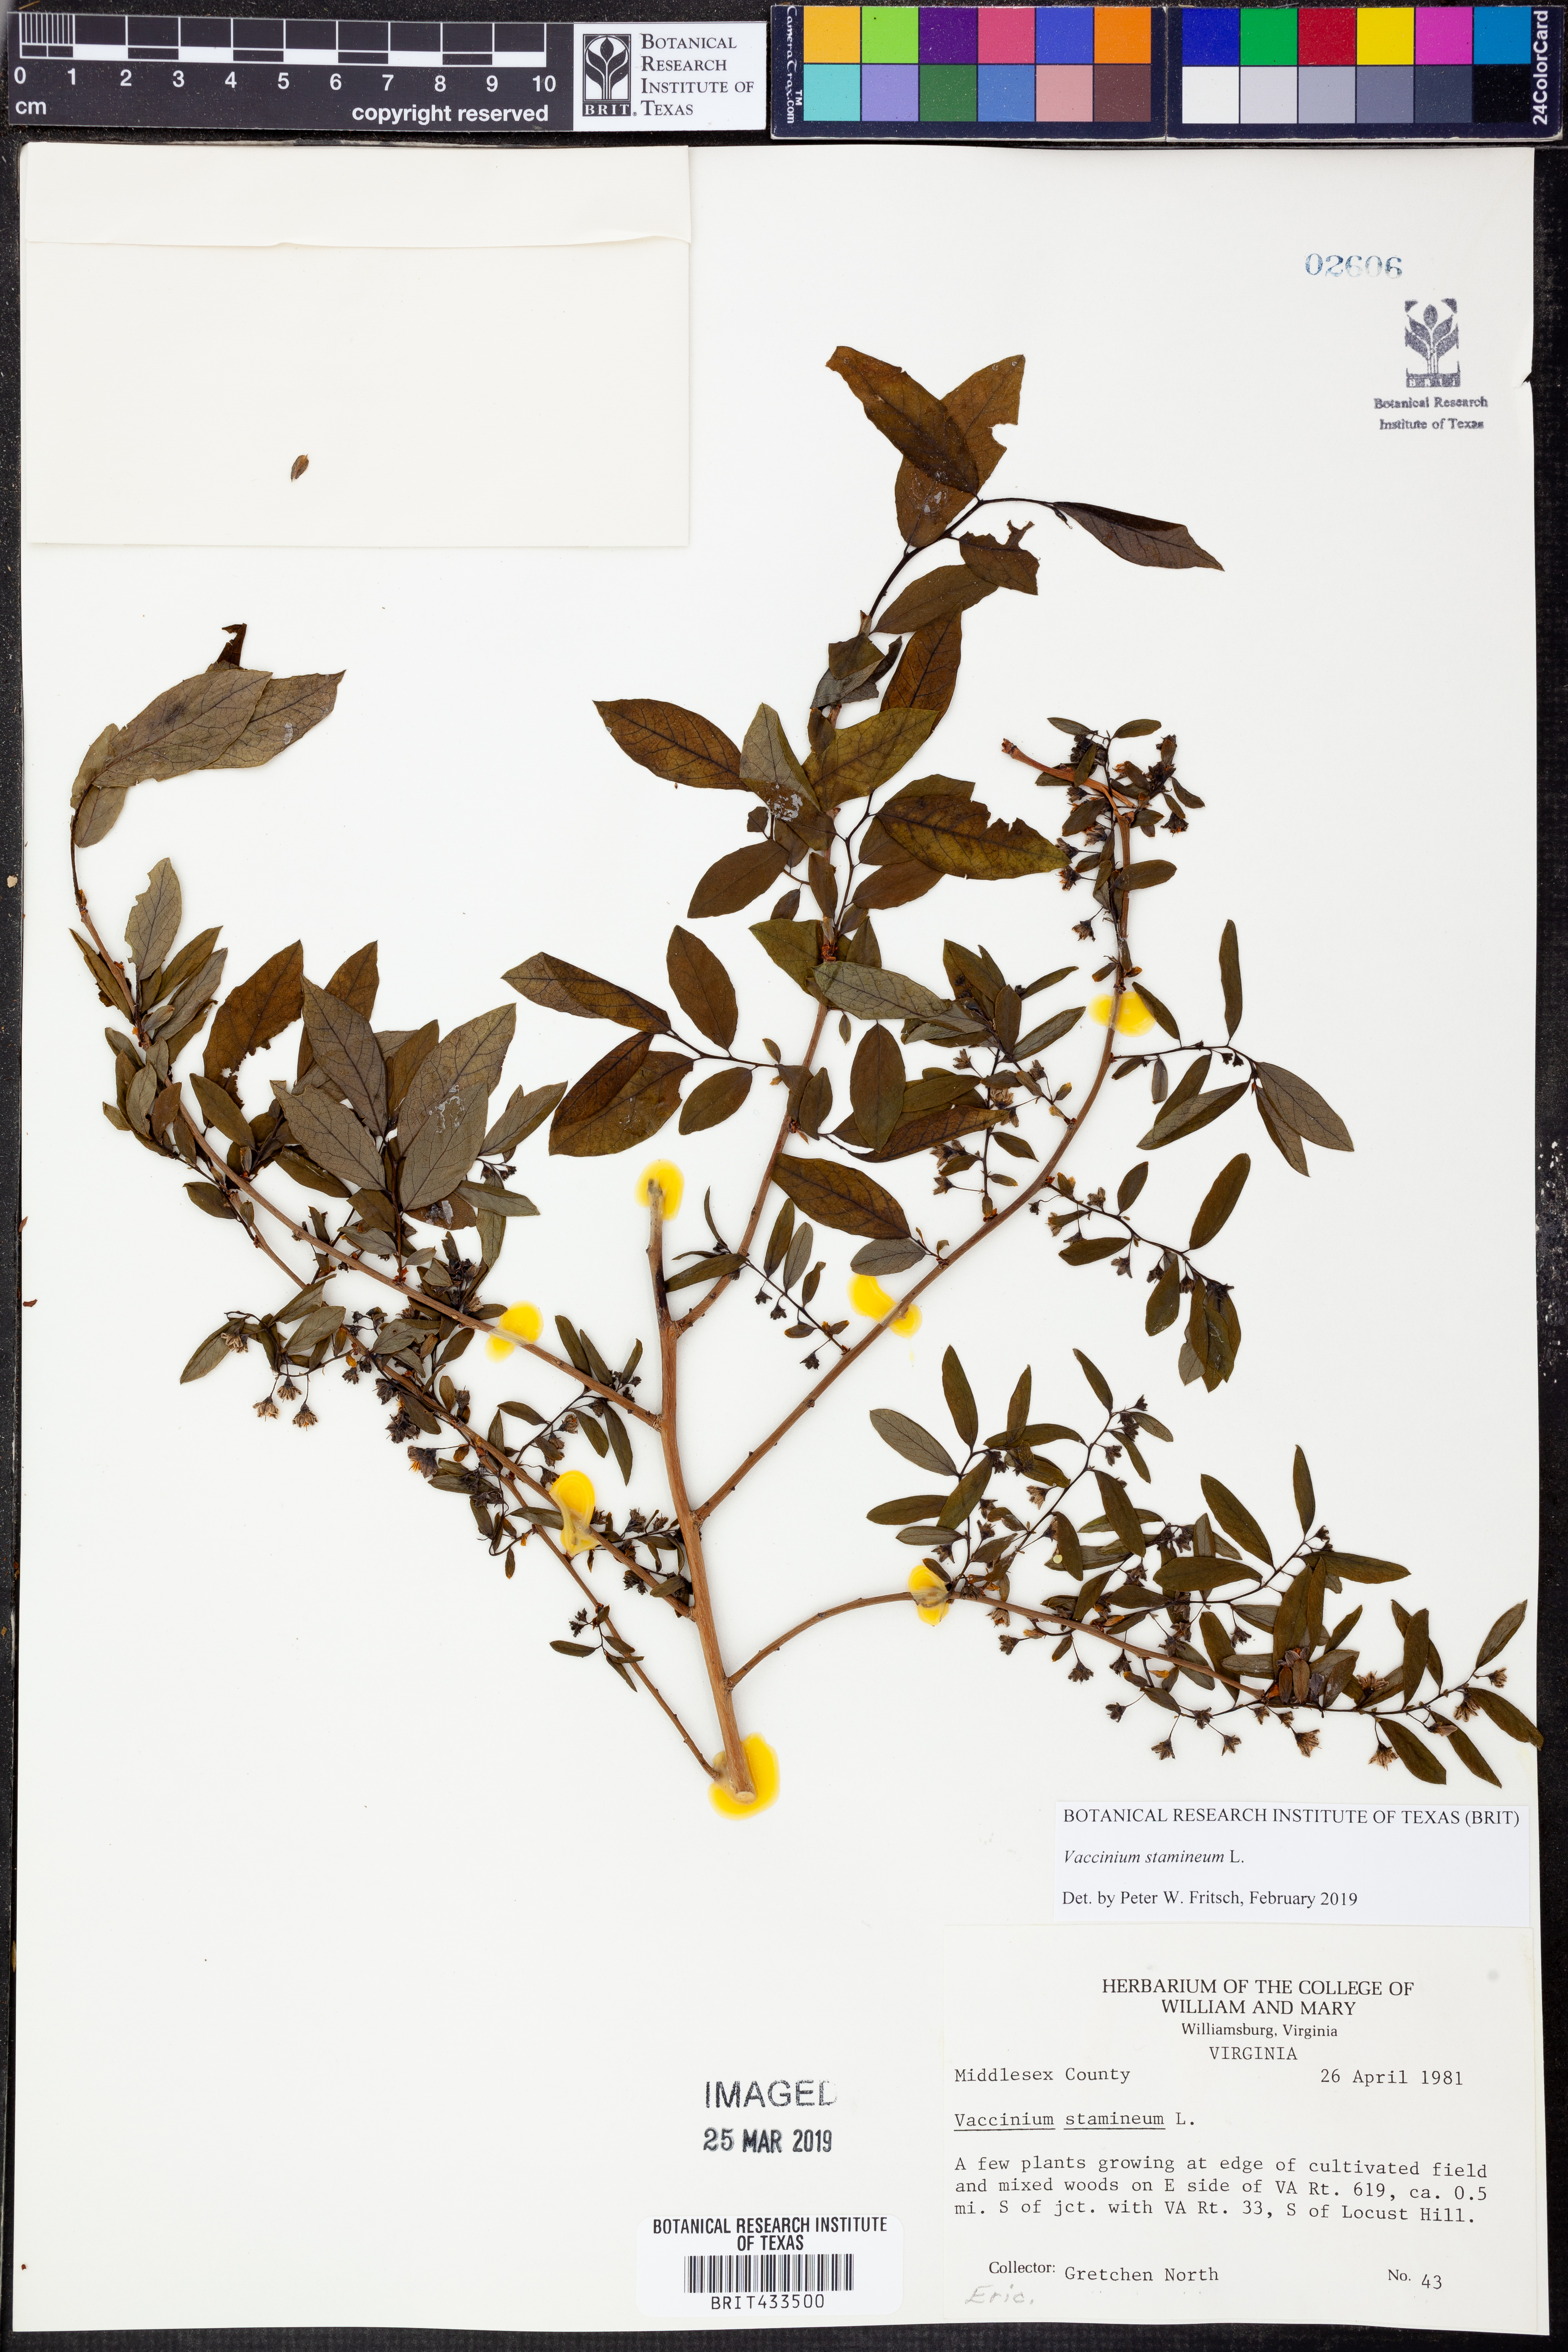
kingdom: Plantae
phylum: Tracheophyta
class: Magnoliopsida
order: Ericales
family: Ericaceae
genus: Vaccinium
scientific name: Vaccinium stamineum
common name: Deerberry
